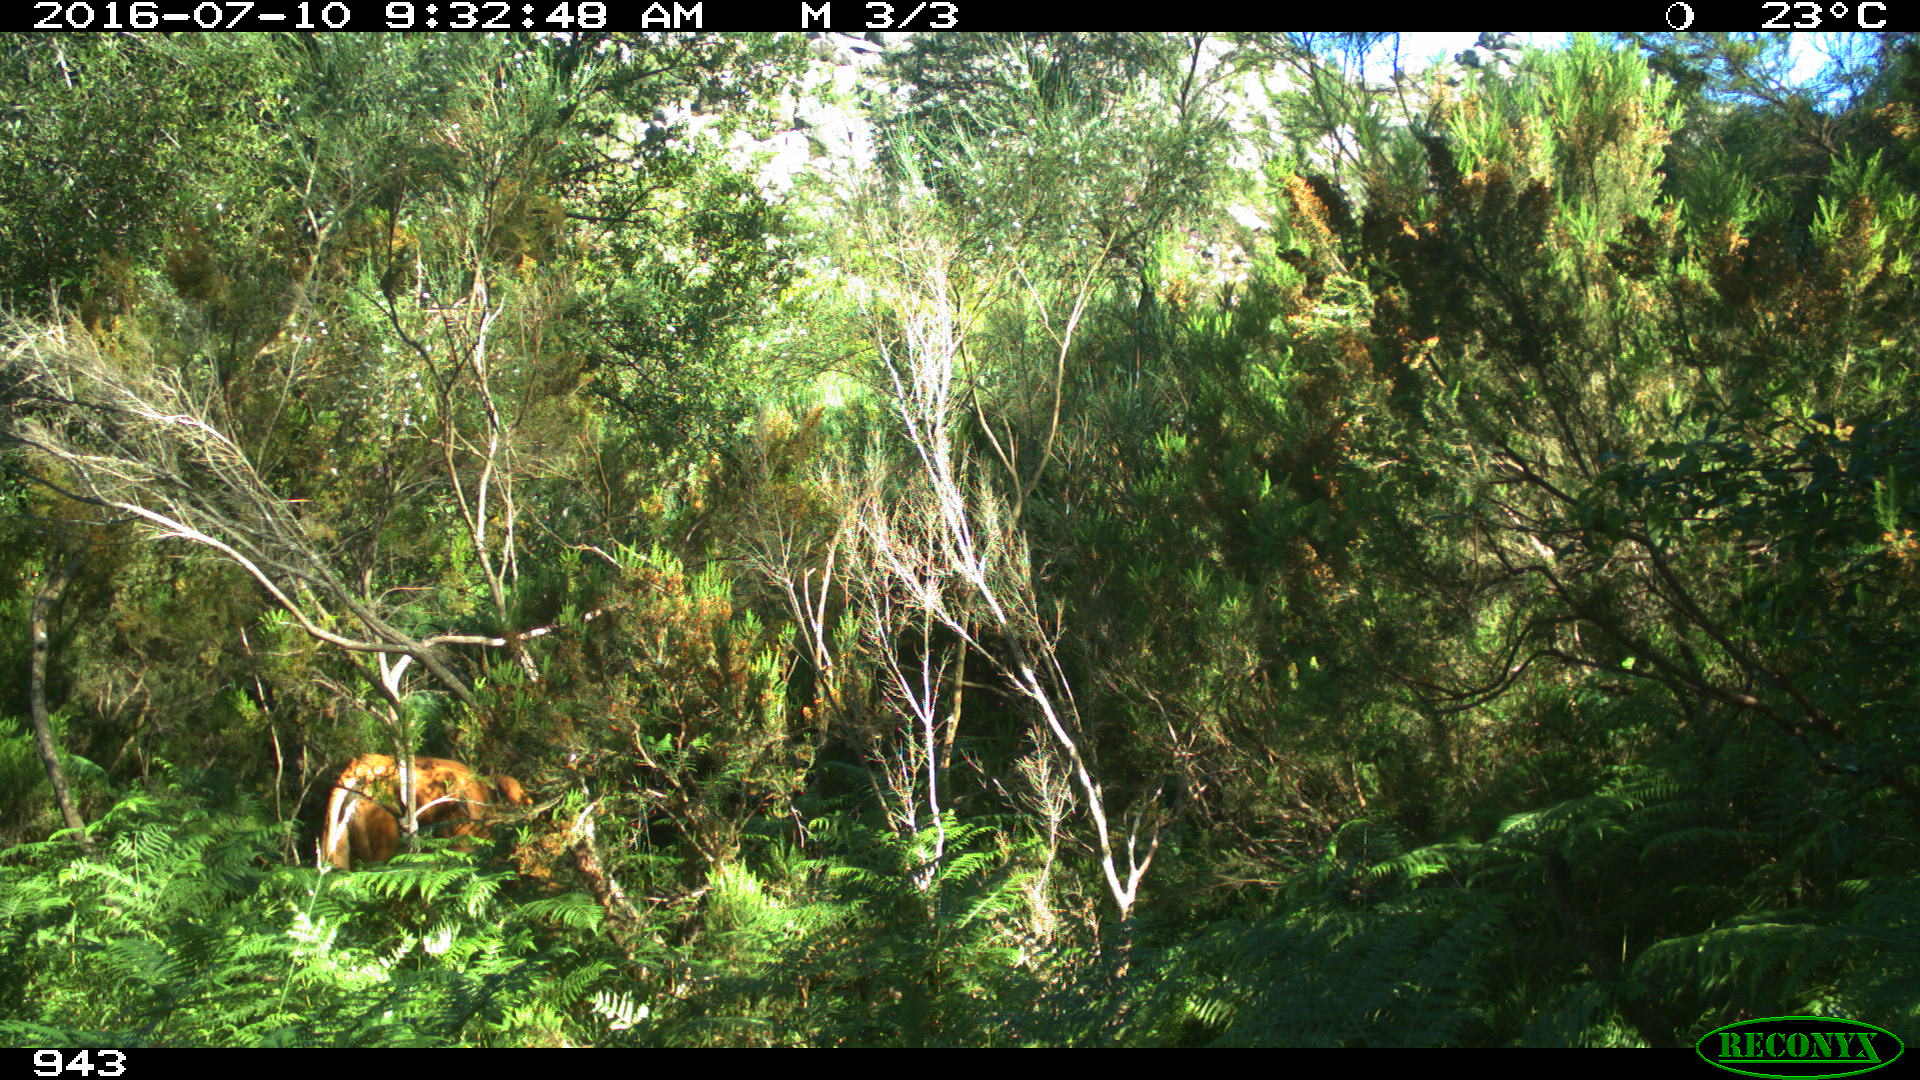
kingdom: Animalia
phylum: Chordata
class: Mammalia
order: Artiodactyla
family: Bovidae
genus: Bos
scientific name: Bos taurus
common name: Domesticated cattle
